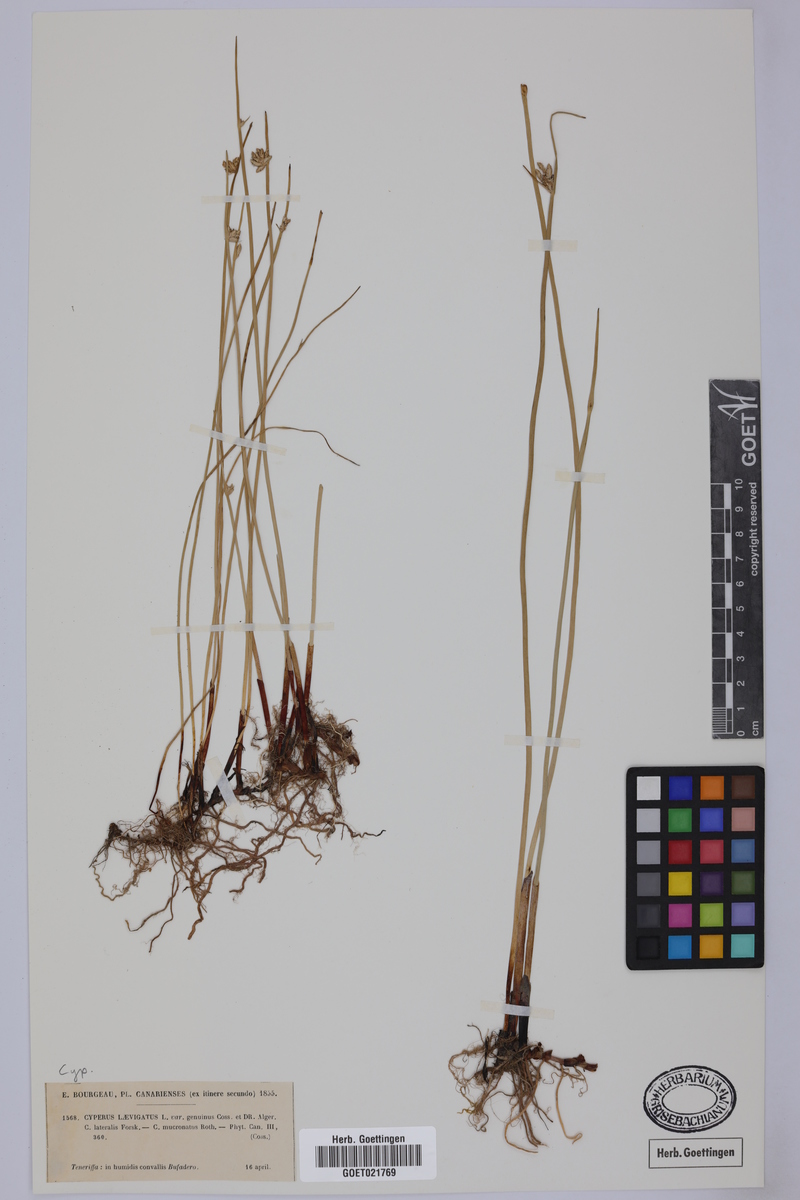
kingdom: Plantae
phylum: Tracheophyta
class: Liliopsida
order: Poales
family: Cyperaceae
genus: Cyperus
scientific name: Cyperus laevigatus
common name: Smooth flat sedge
